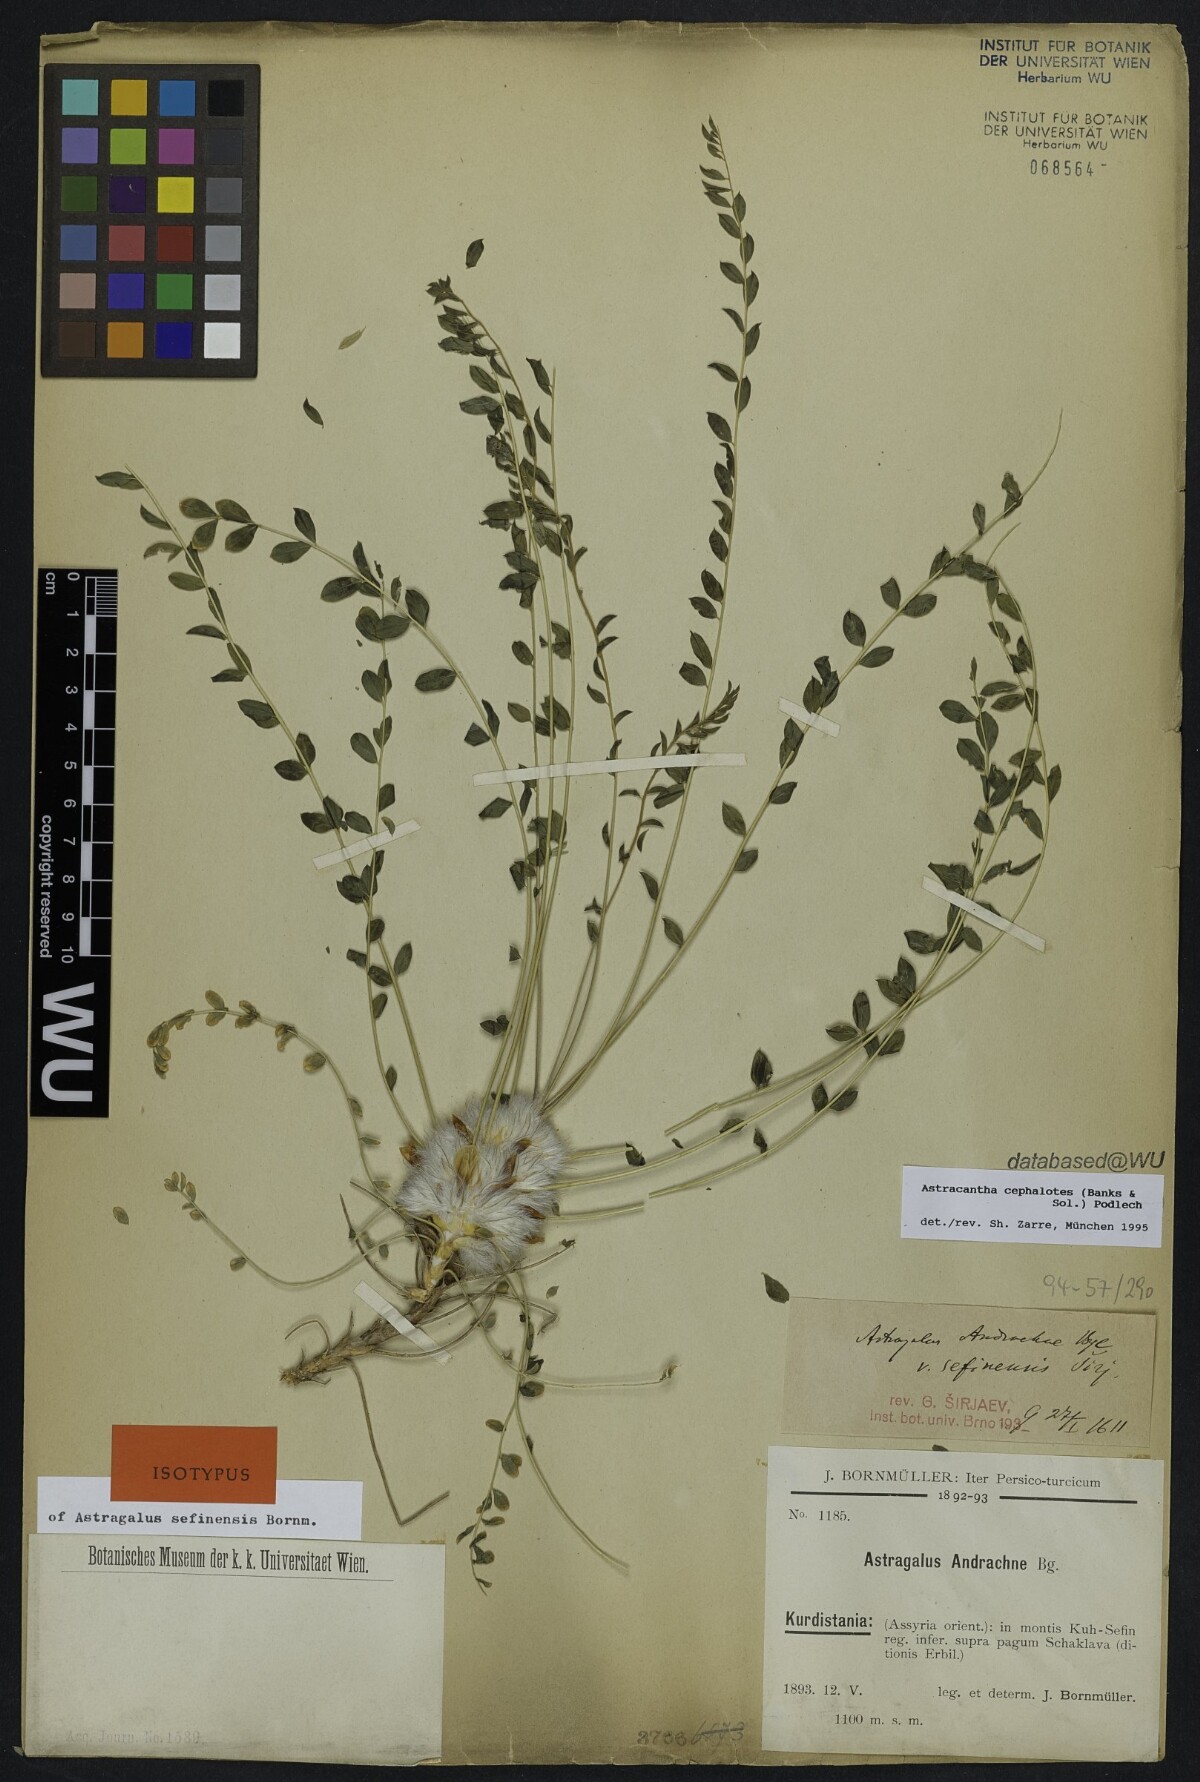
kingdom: Plantae
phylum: Tracheophyta
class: Magnoliopsida
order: Fabales
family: Fabaceae
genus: Astragalus
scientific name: Astragalus cephalotes
